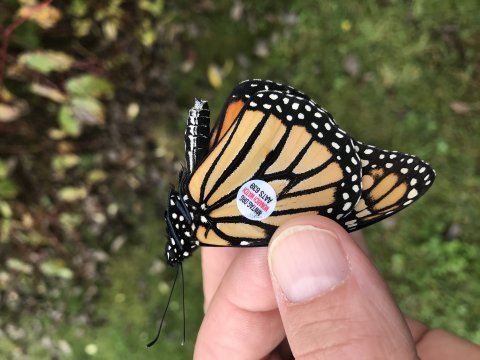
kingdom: Animalia
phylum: Arthropoda
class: Insecta
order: Lepidoptera
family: Nymphalidae
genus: Danaus
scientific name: Danaus plexippus
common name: Monarch
